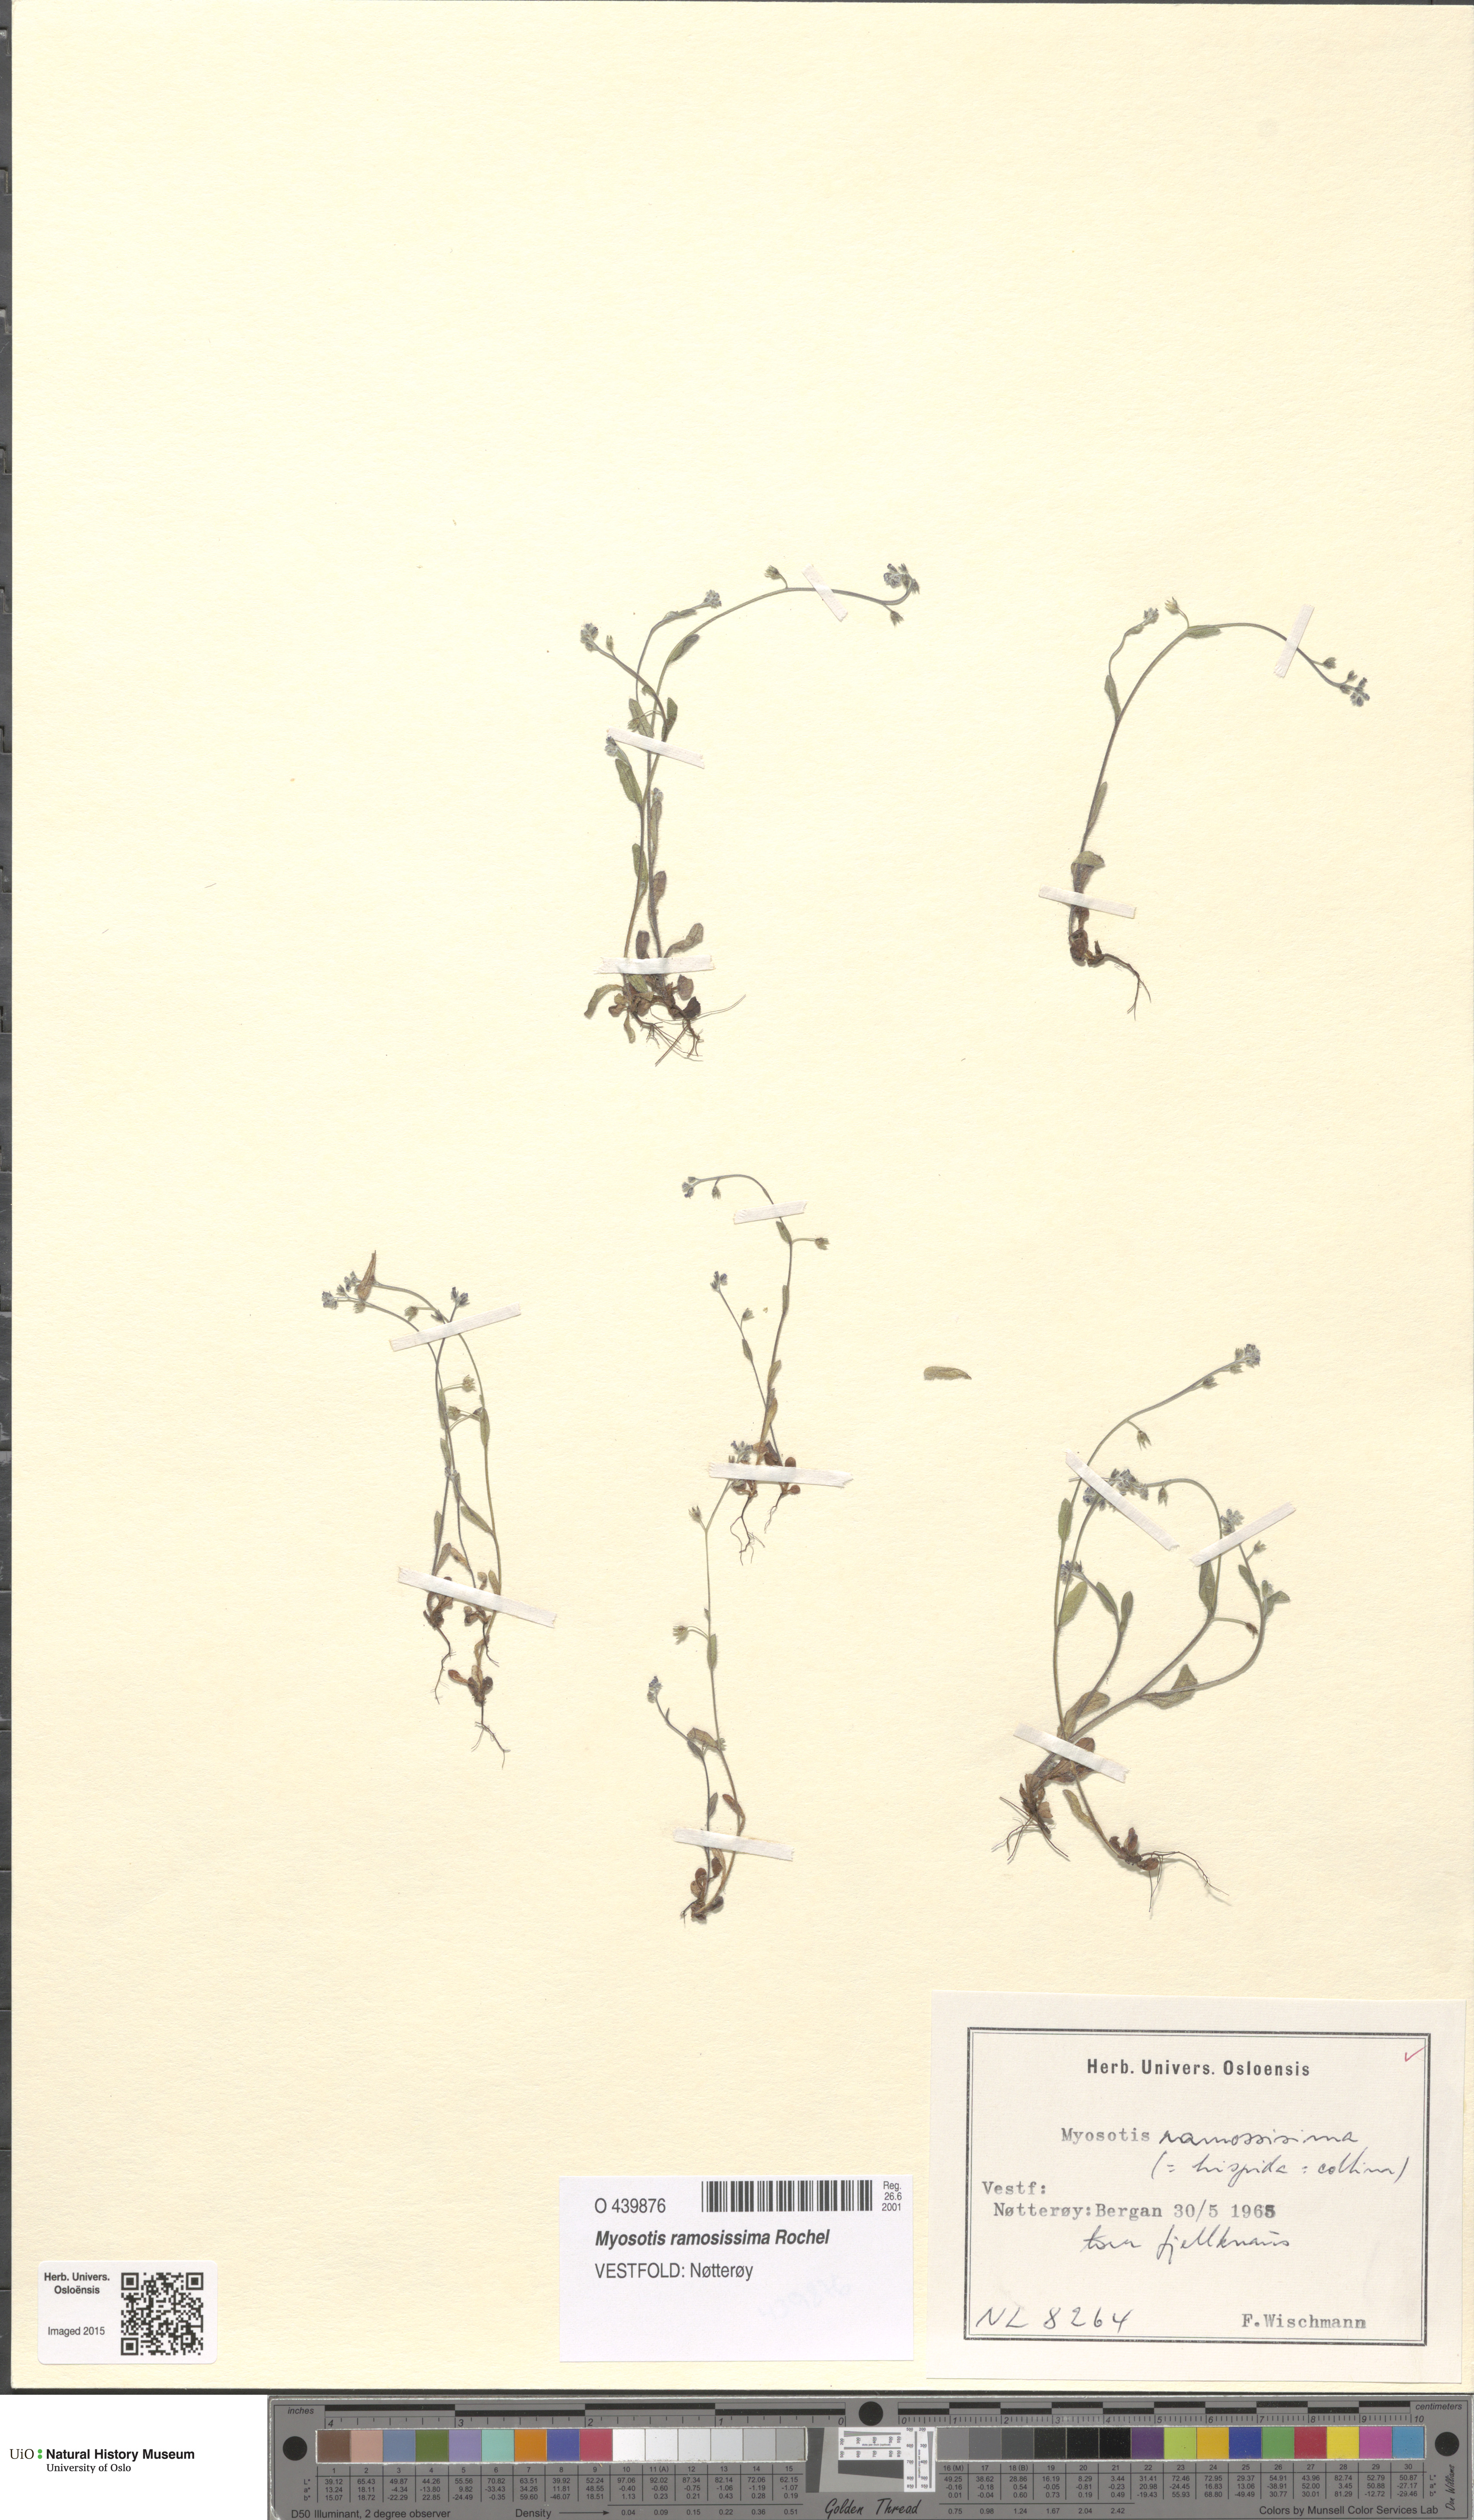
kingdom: Plantae
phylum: Tracheophyta
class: Magnoliopsida
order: Boraginales
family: Boraginaceae
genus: Myosotis
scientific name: Myosotis ramosissima
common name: Early forget-me-not
